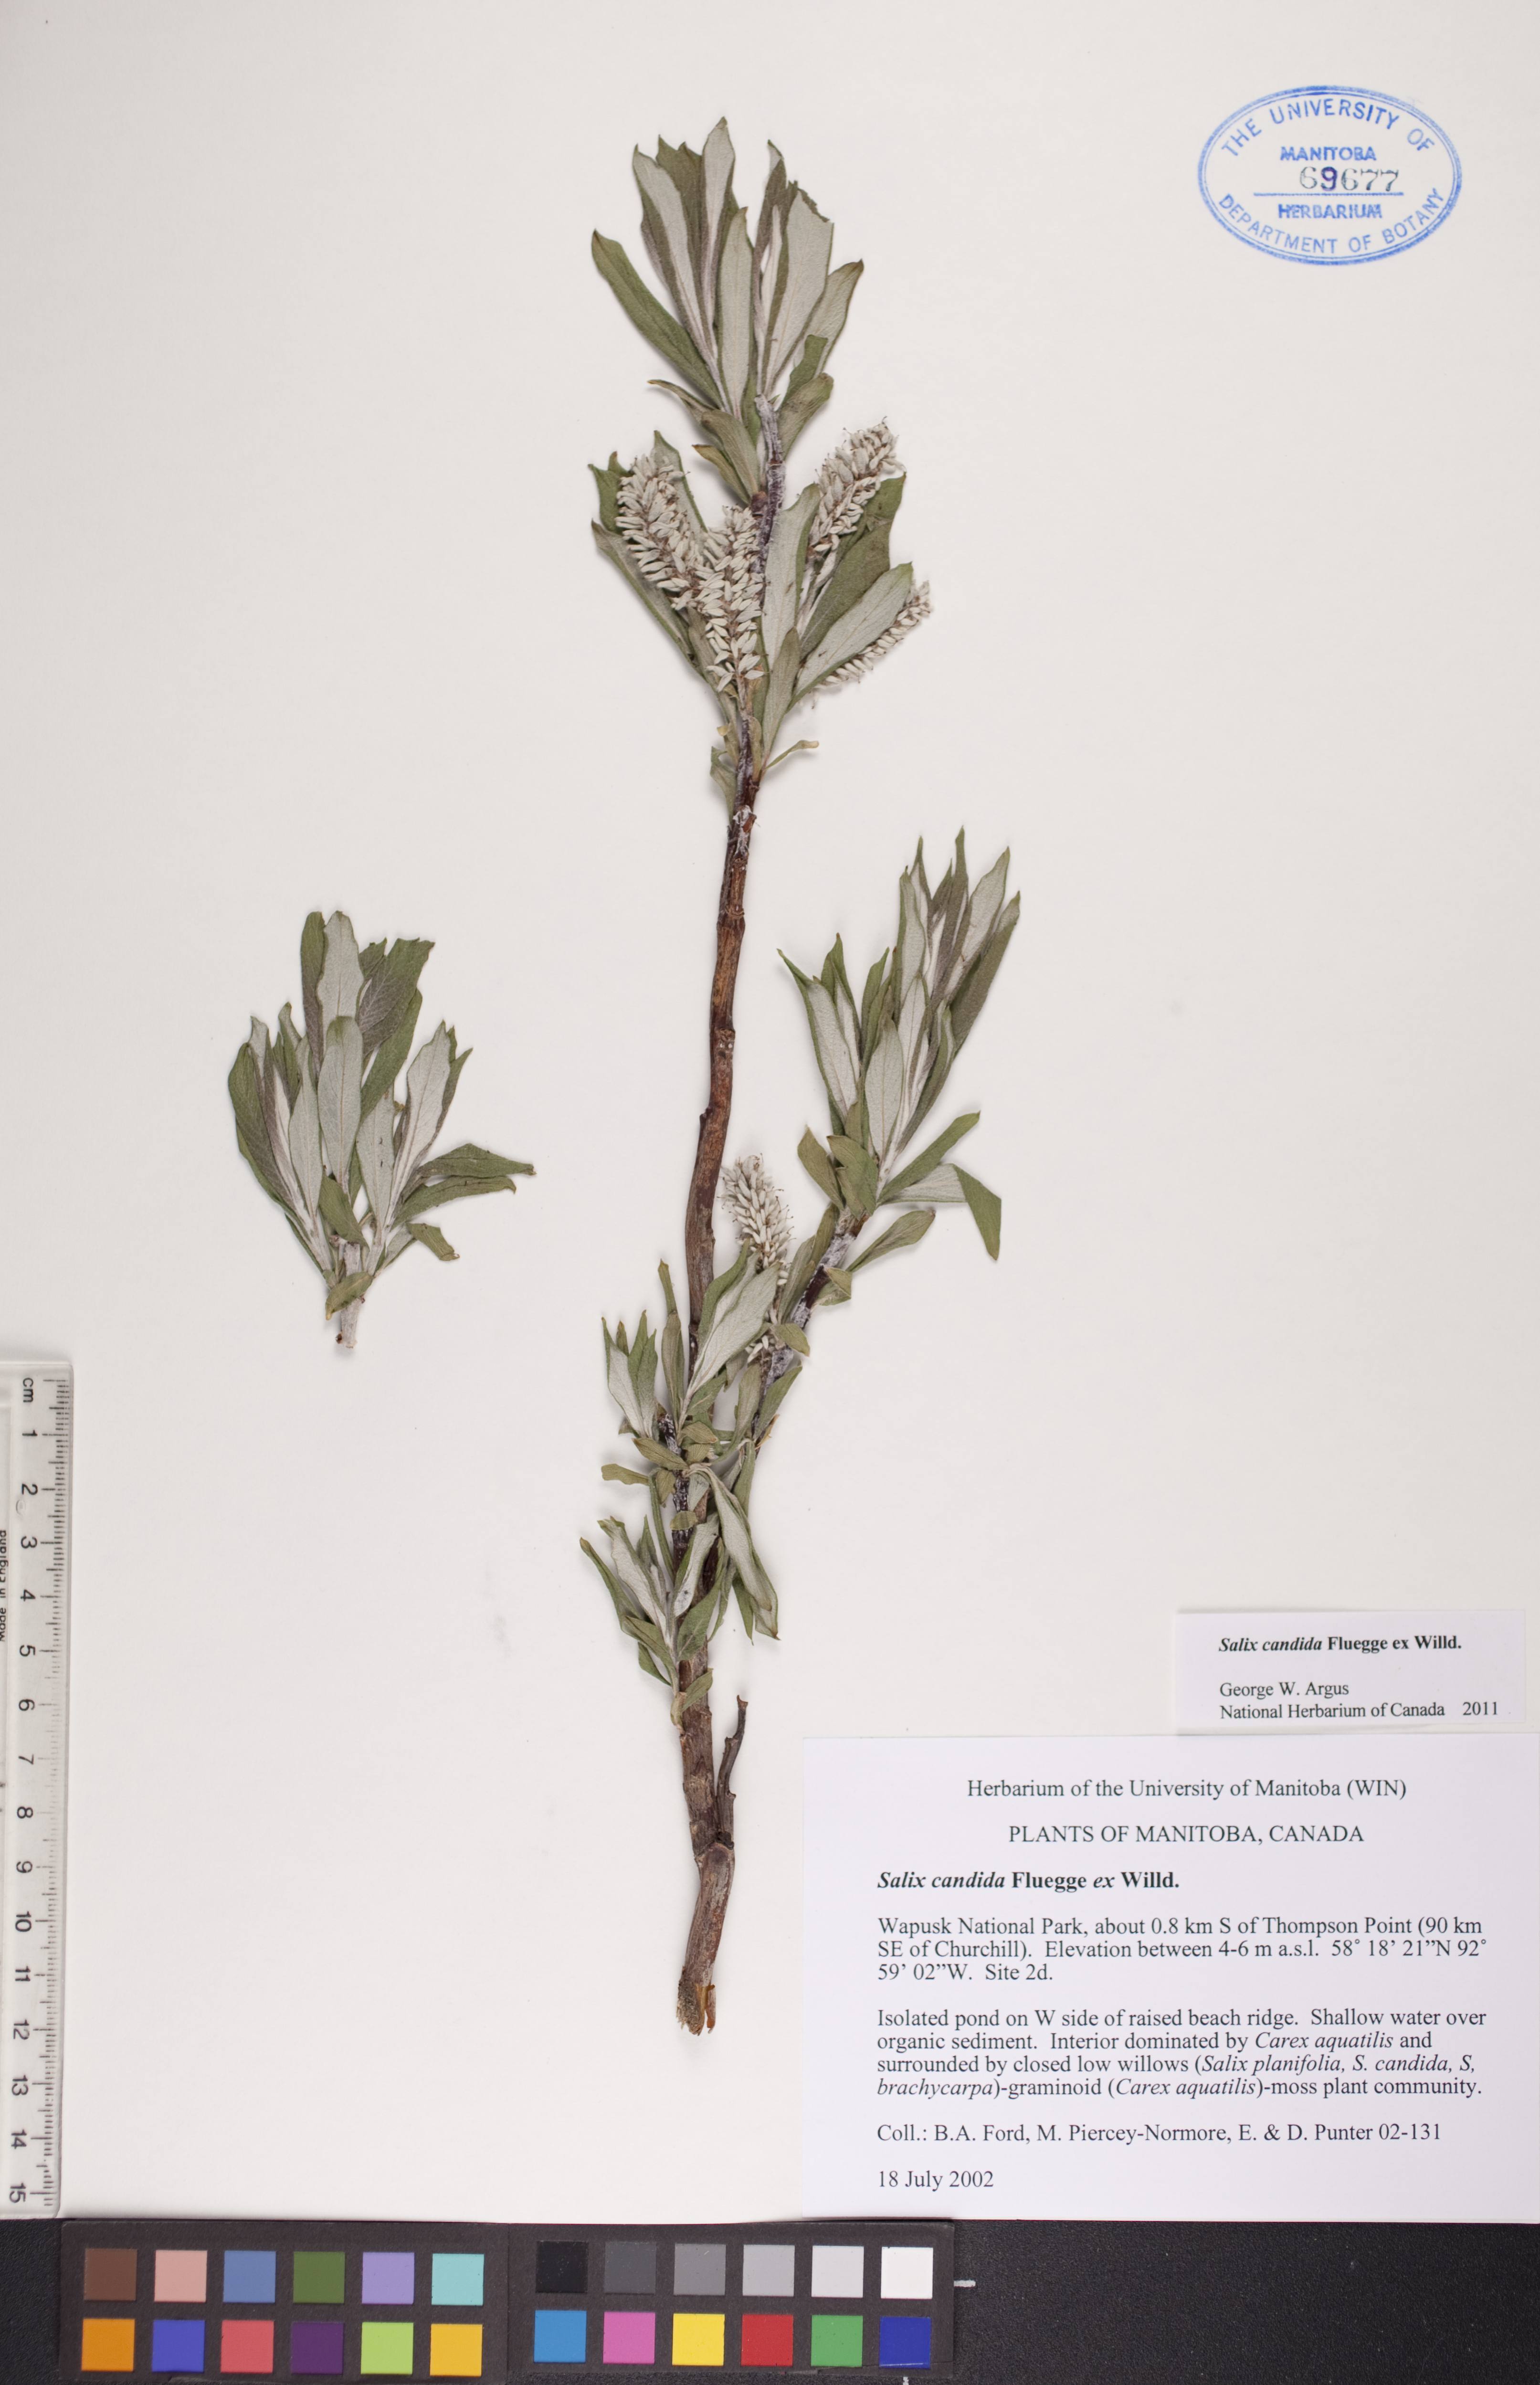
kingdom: Plantae
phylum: Tracheophyta
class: Magnoliopsida
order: Malpighiales
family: Salicaceae
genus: Salix
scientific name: Salix candida
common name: Hoary willow
